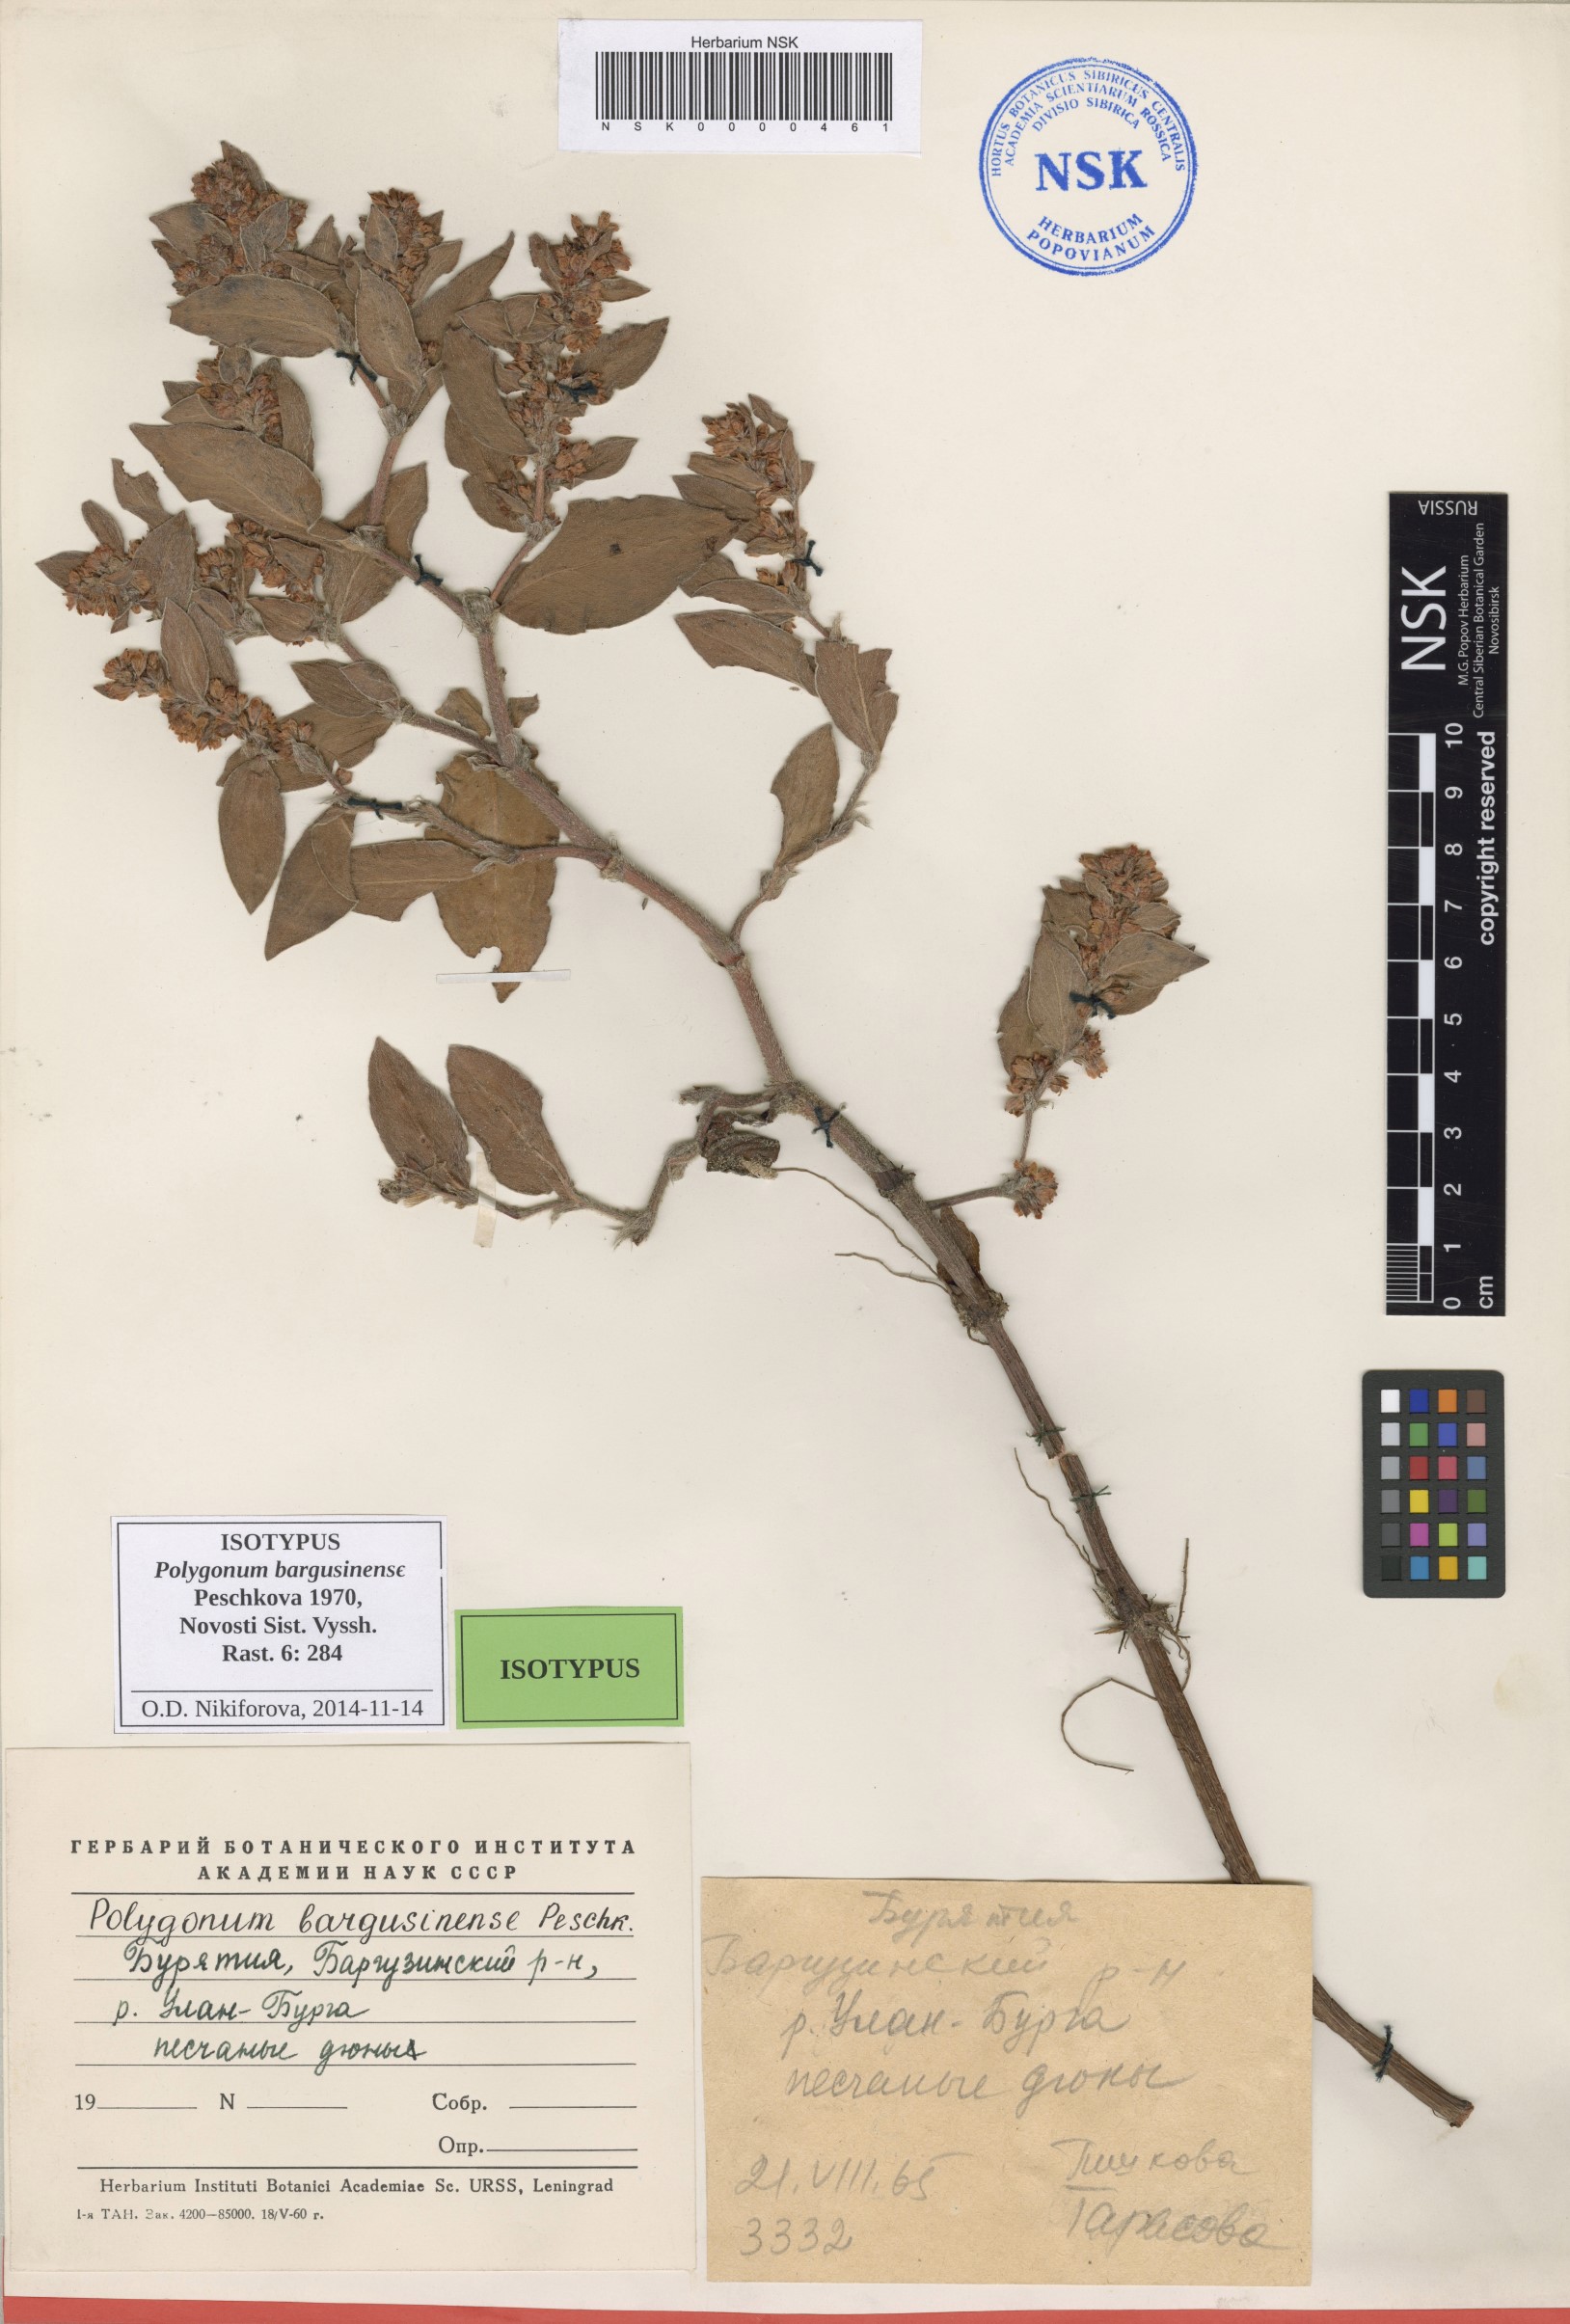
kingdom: Plantae
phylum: Tracheophyta
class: Magnoliopsida
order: Caryophyllales
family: Polygonaceae
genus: Koenigia
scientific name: Koenigia bargusinensis
